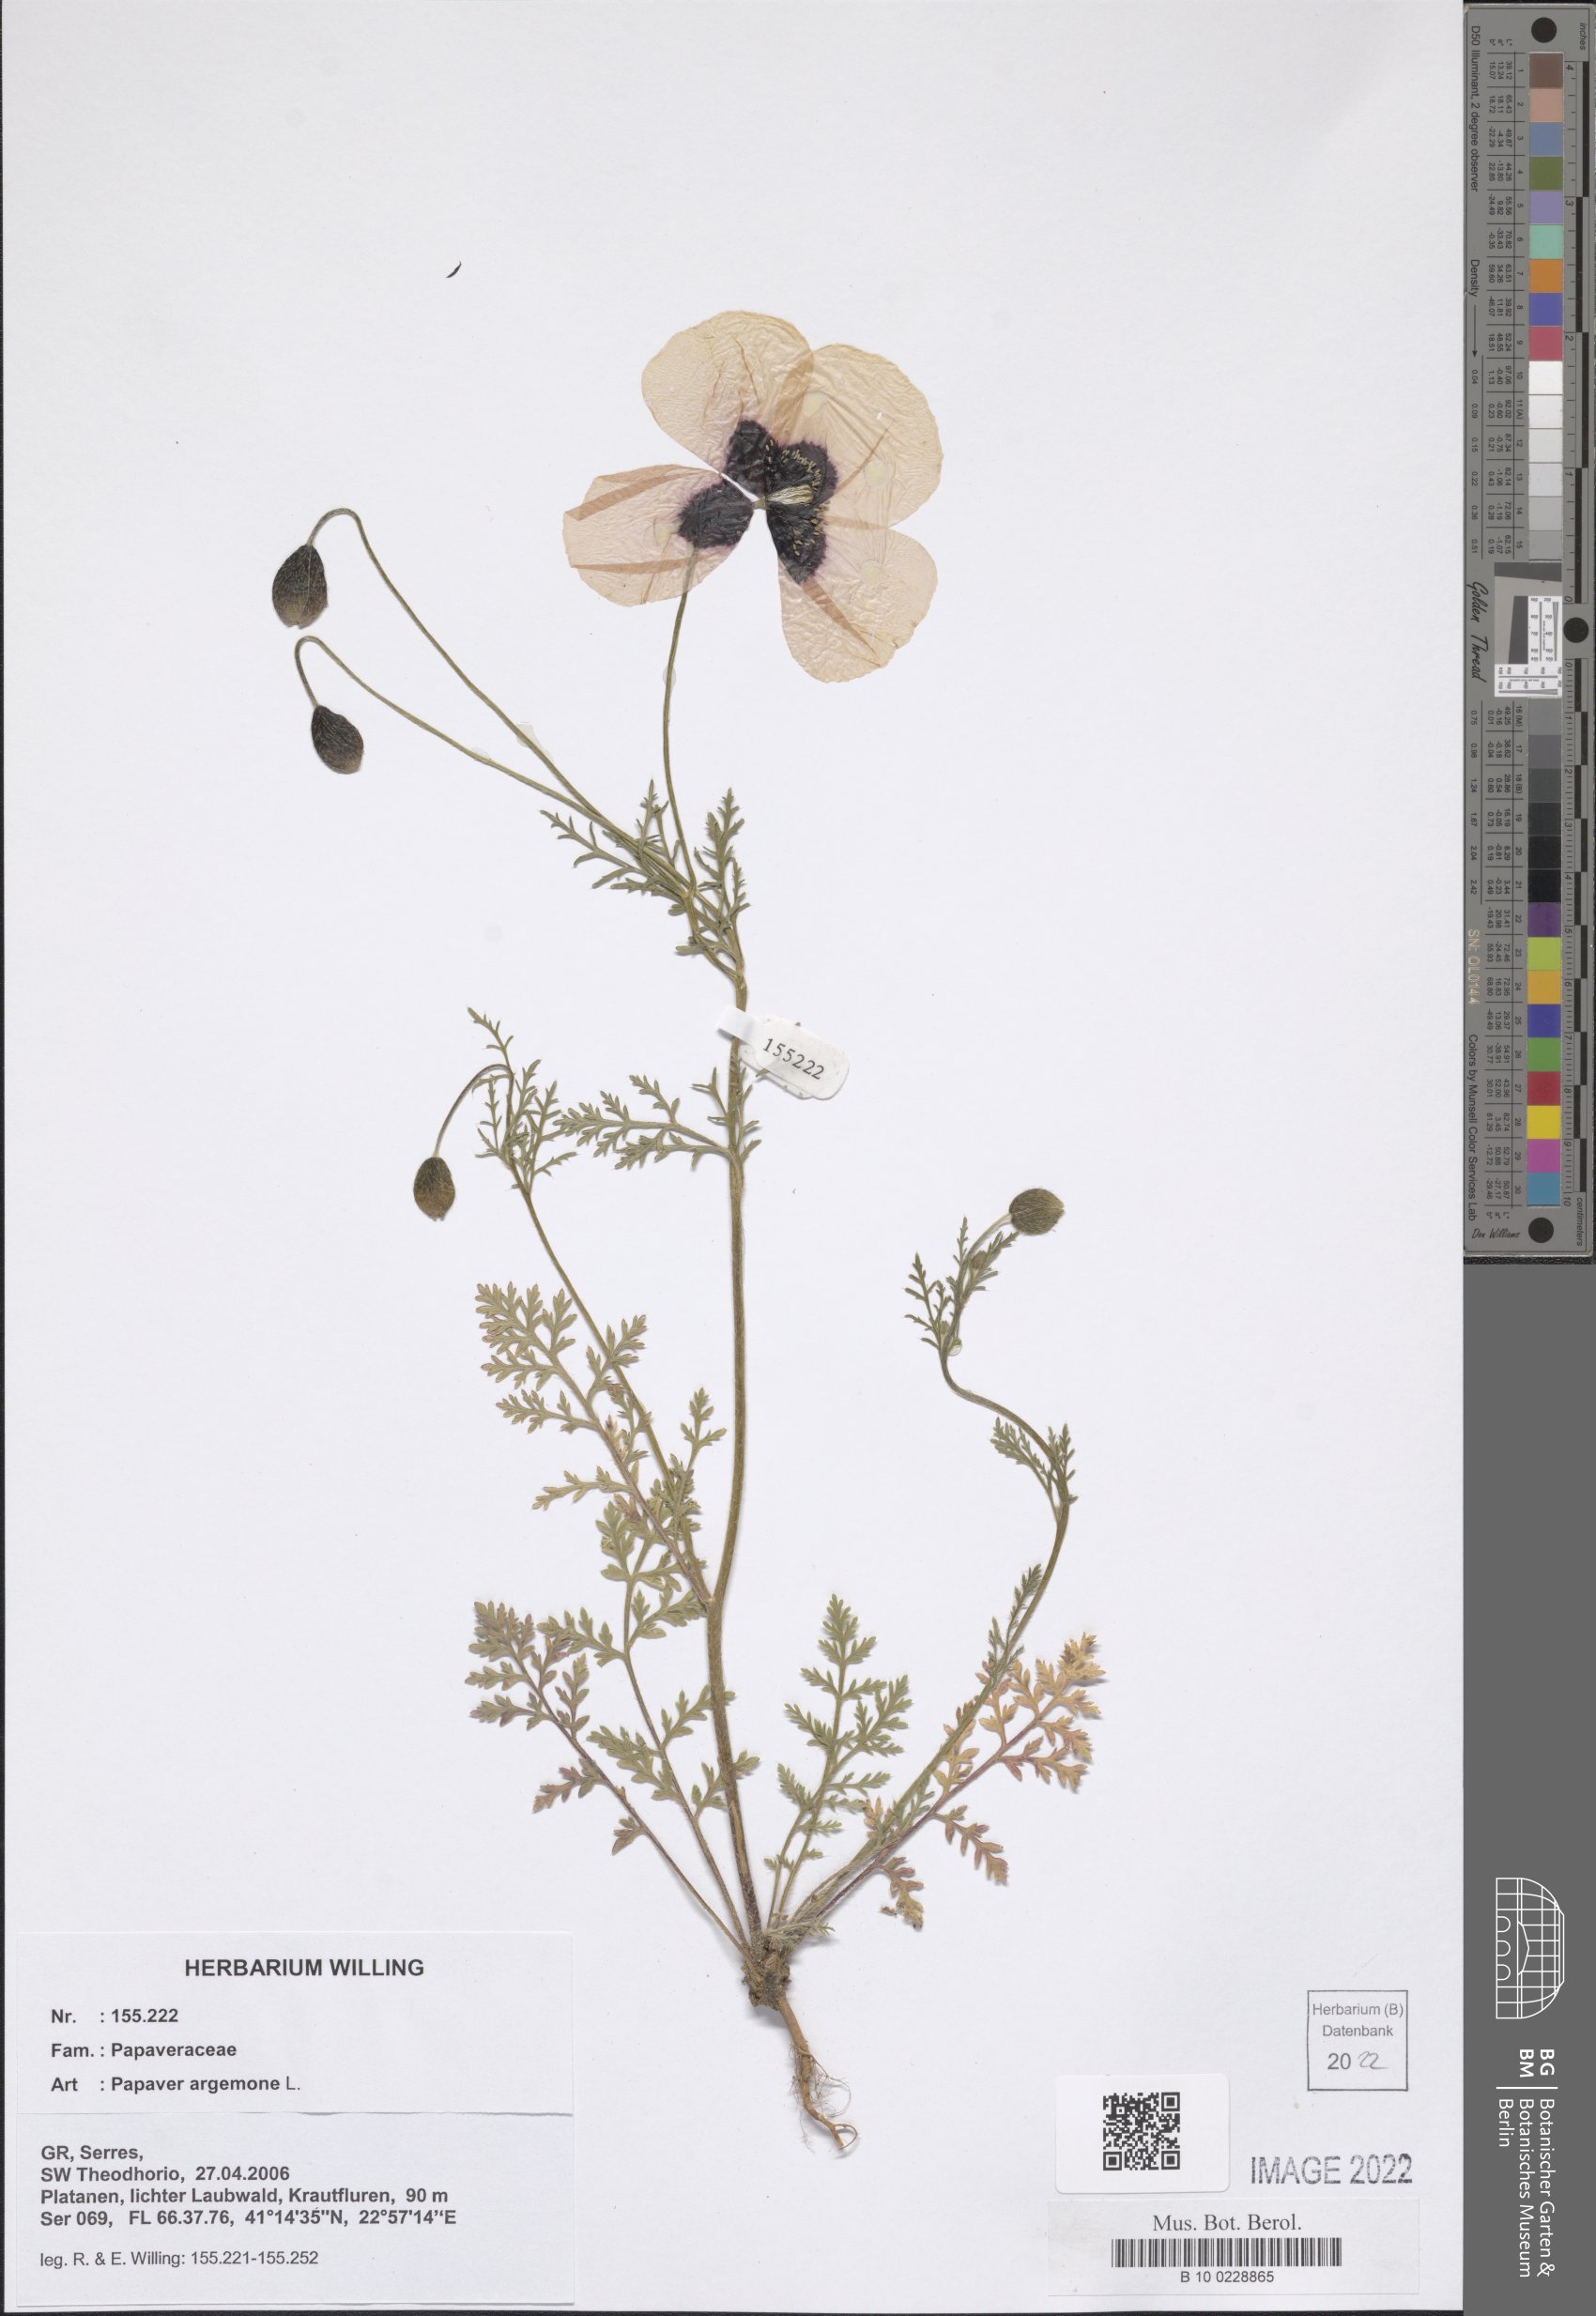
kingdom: Plantae
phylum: Tracheophyta
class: Magnoliopsida
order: Ranunculales
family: Papaveraceae
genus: Roemeria
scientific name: Roemeria argemone
